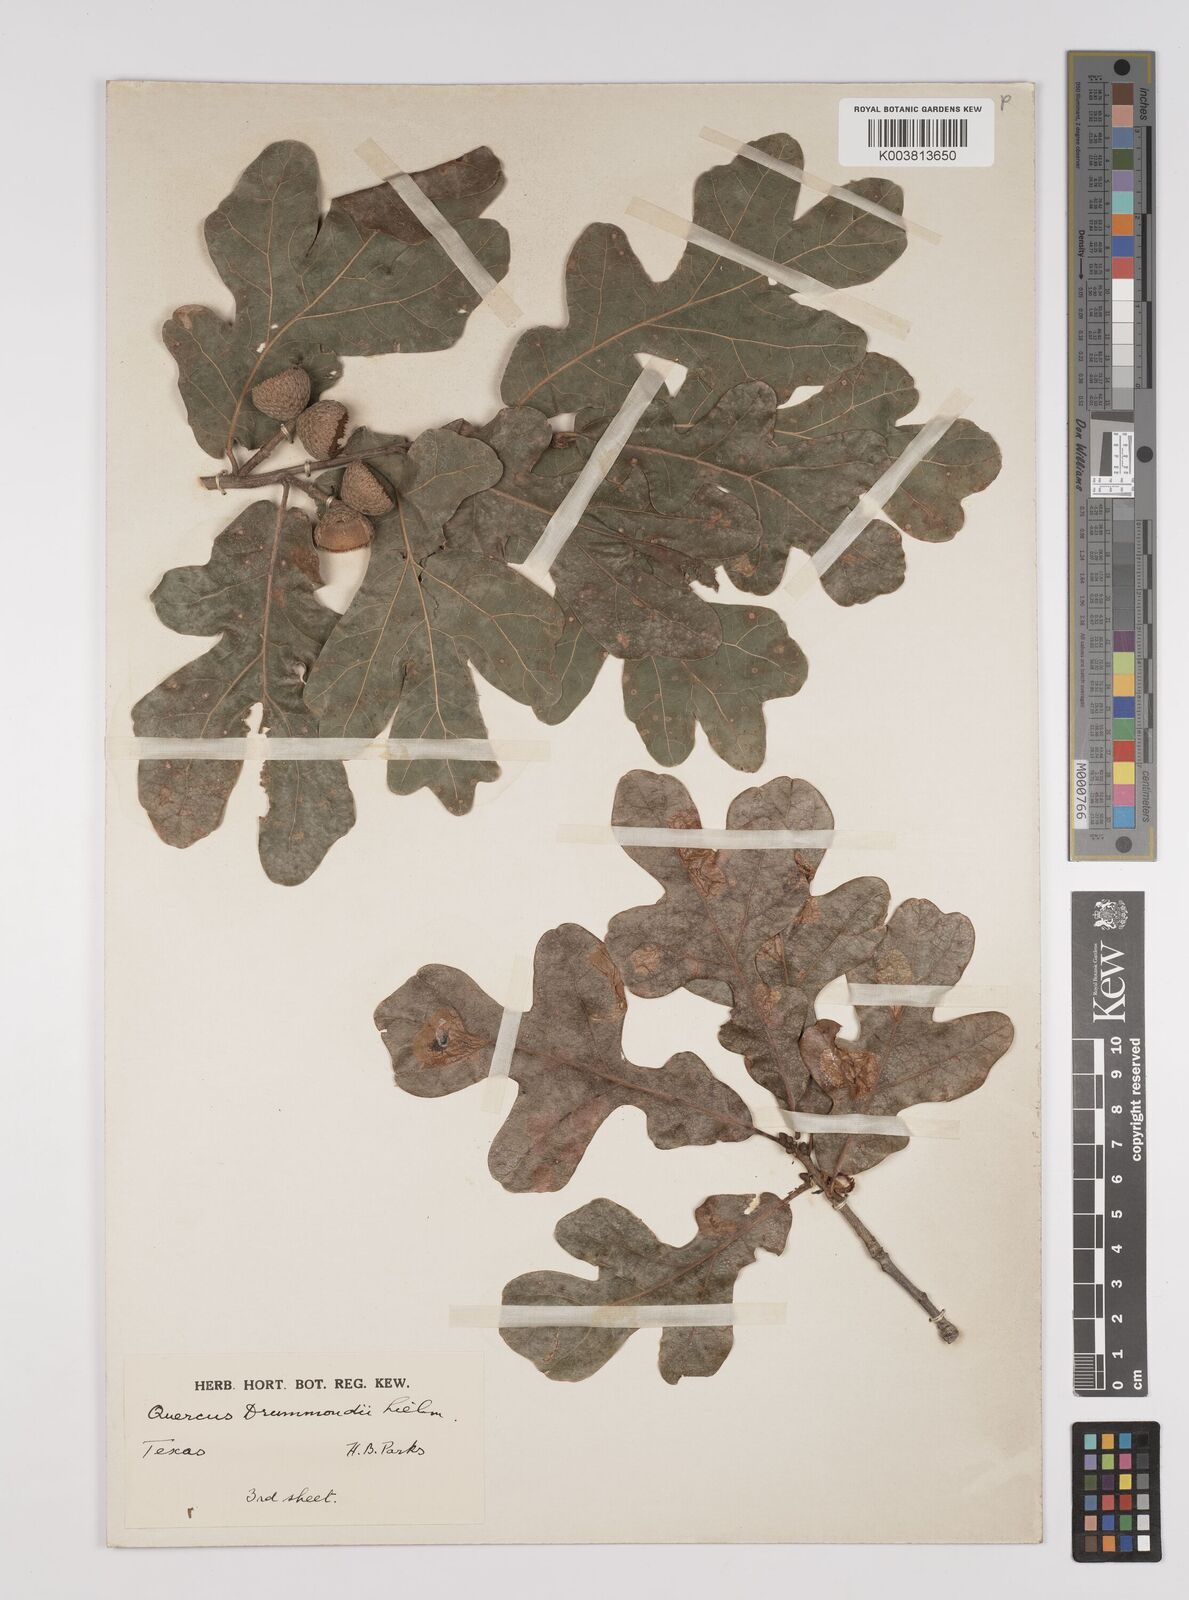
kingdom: Plantae
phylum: Tracheophyta
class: Magnoliopsida
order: Fagales
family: Fagaceae
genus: Quercus
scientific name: Quercus stellata
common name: Post oak
